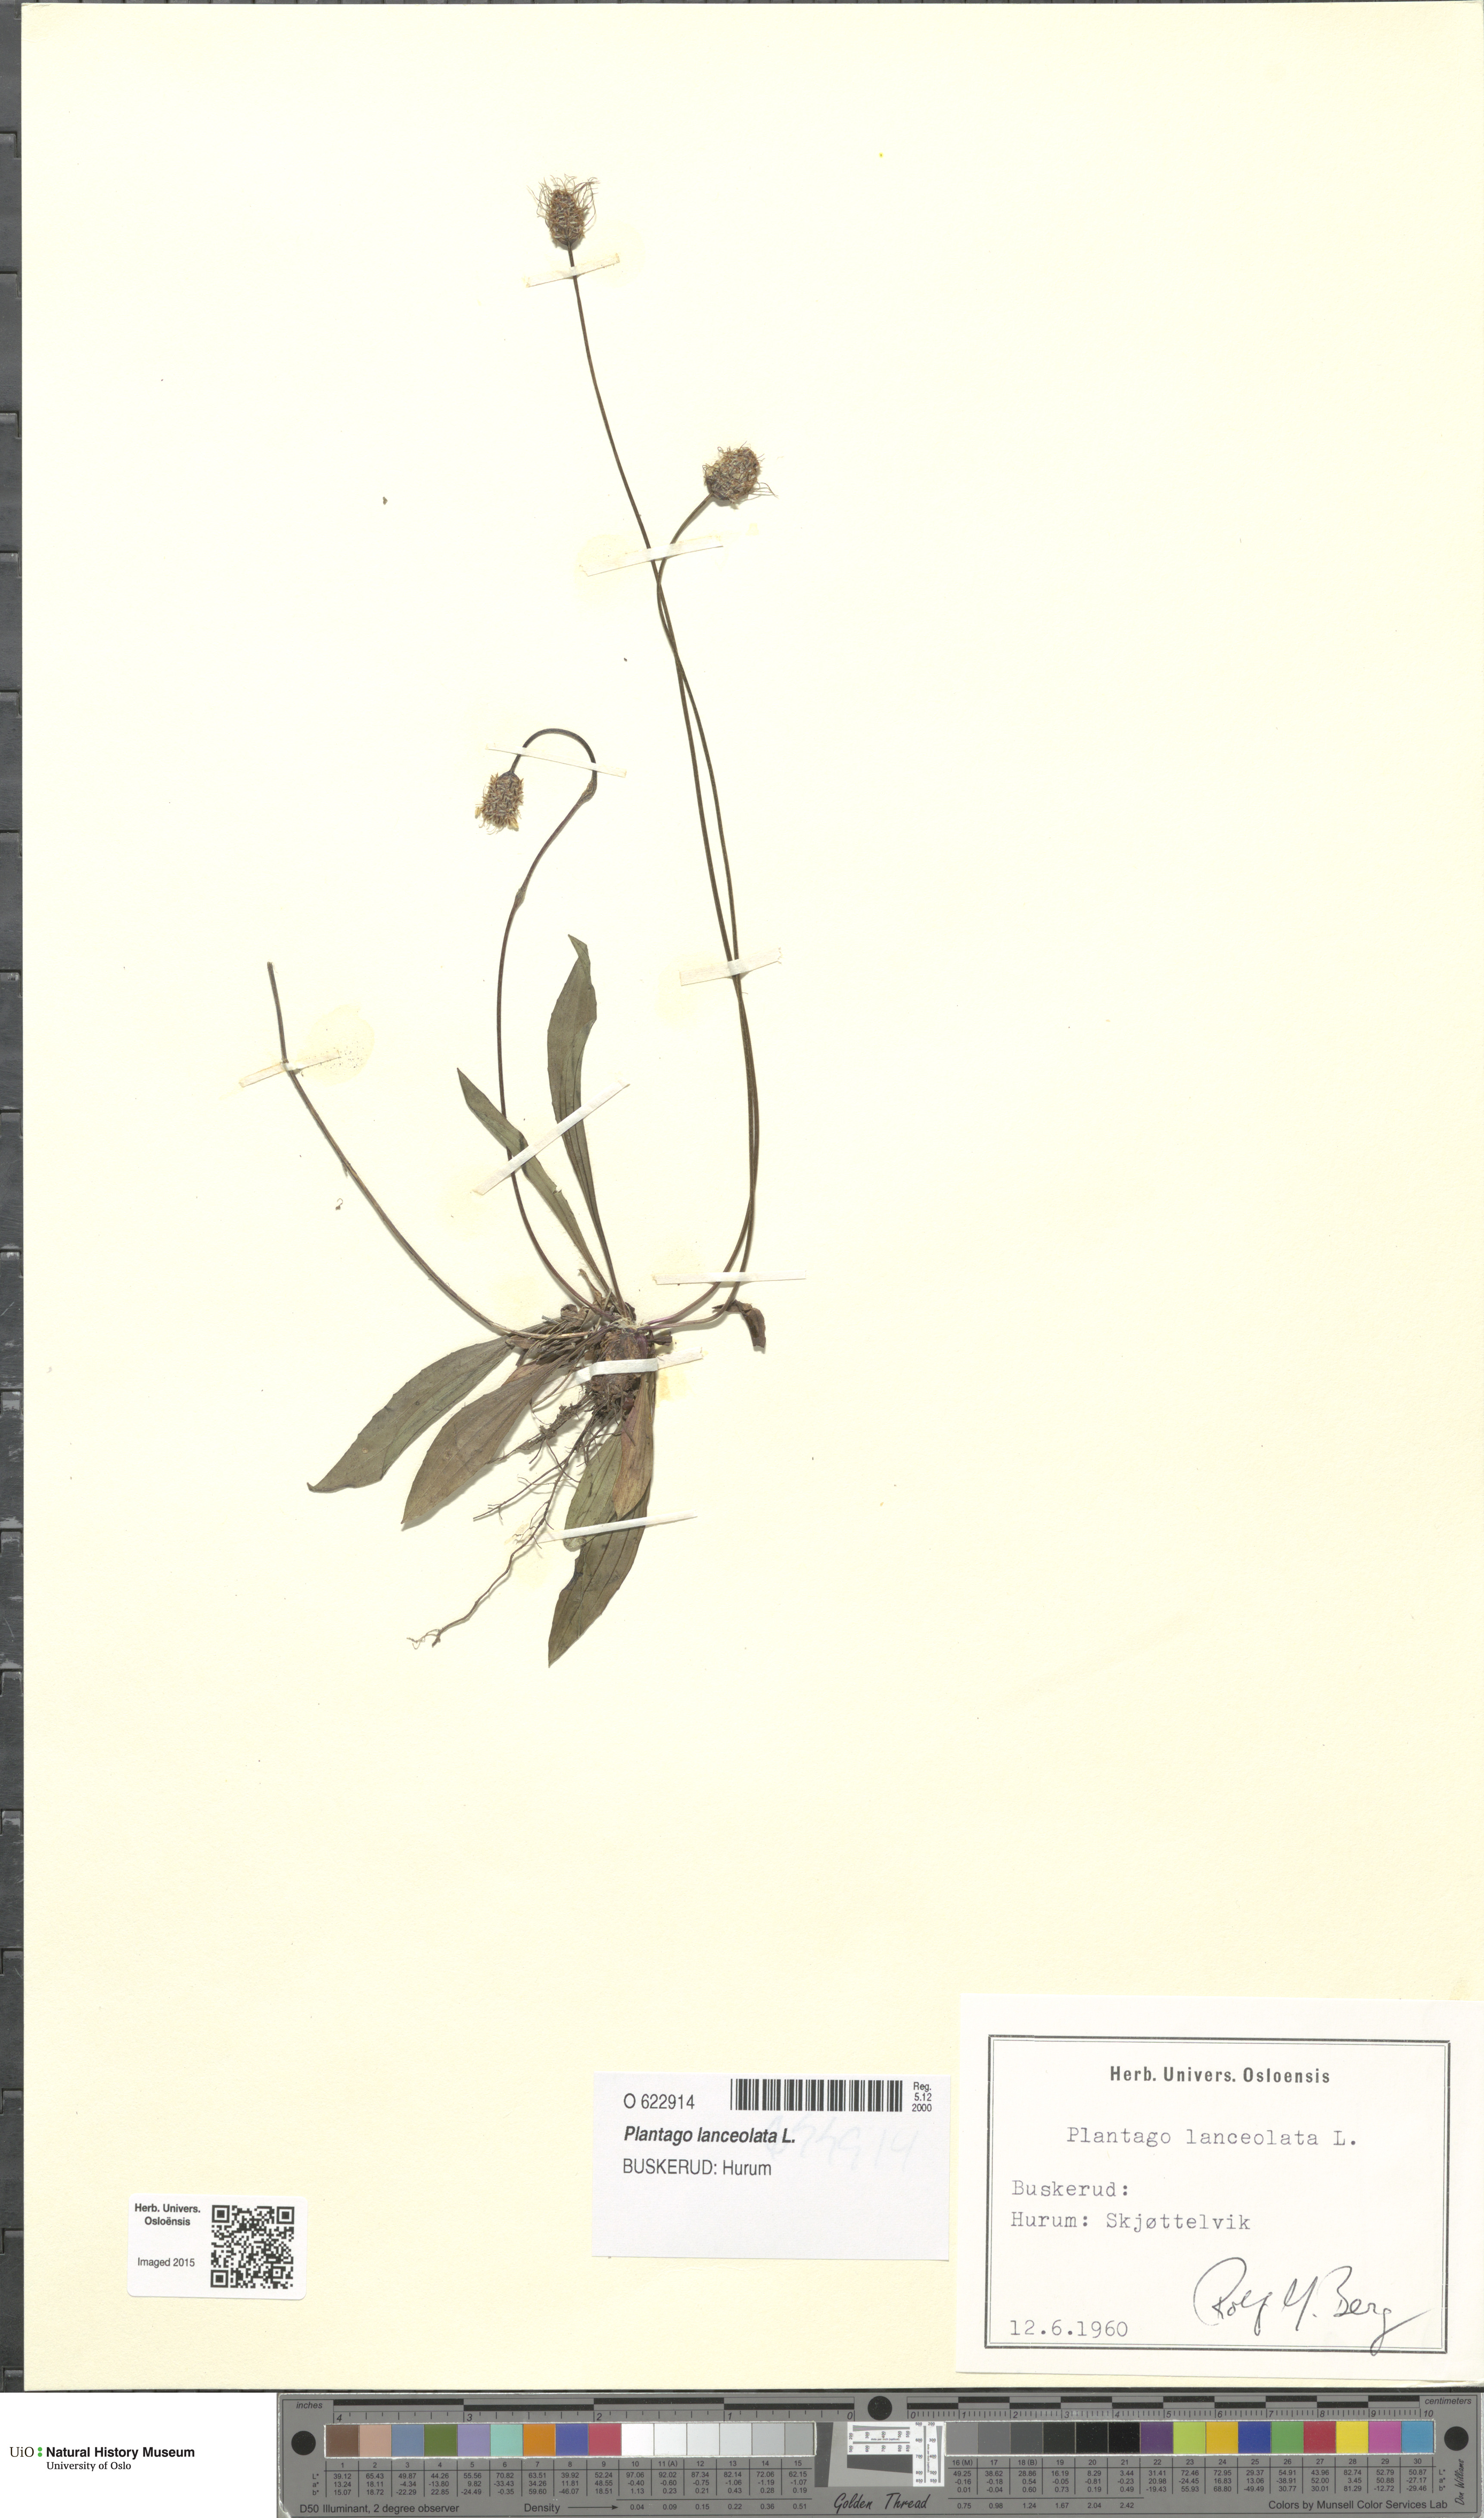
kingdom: Plantae
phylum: Tracheophyta
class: Magnoliopsida
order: Lamiales
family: Plantaginaceae
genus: Plantago
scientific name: Plantago lanceolata
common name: Ribwort plantain
